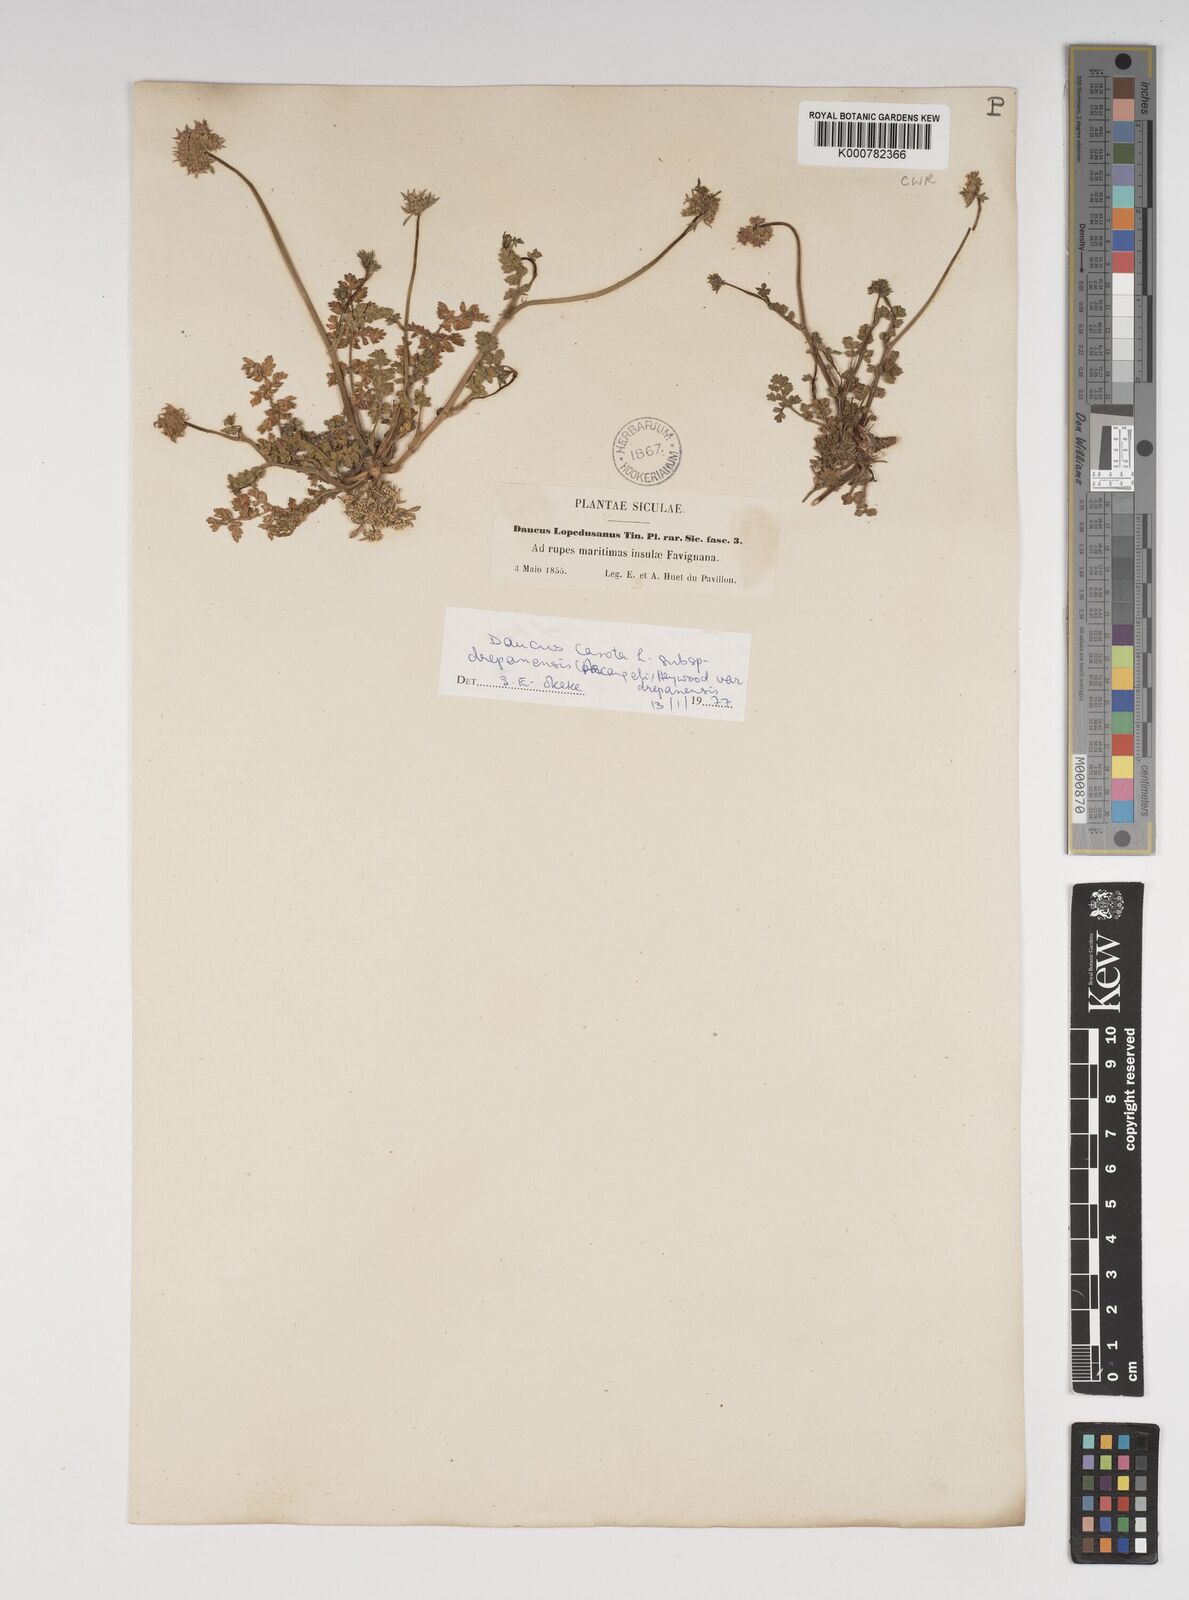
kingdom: Plantae
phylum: Tracheophyta
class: Magnoliopsida
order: Apiales
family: Apiaceae
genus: Daucus
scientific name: Daucus carota
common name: Wild carrot
